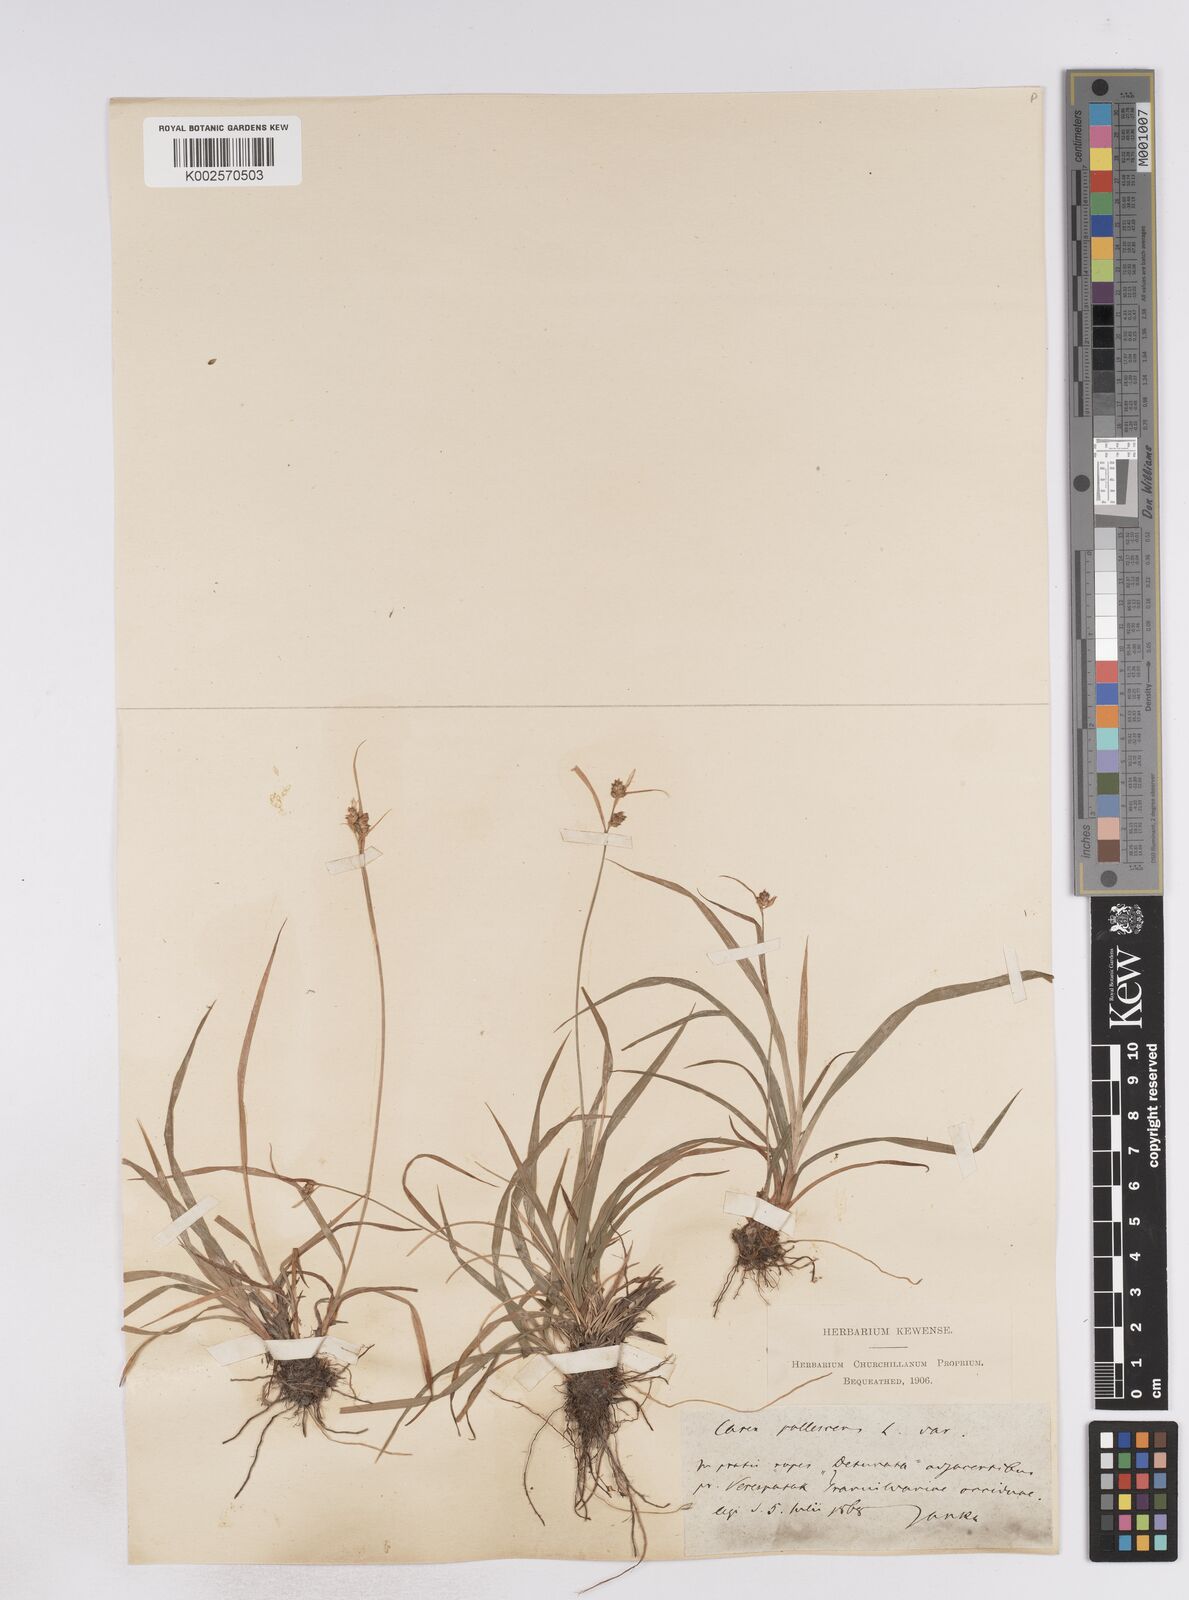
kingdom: Plantae
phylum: Tracheophyta
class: Liliopsida
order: Poales
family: Cyperaceae
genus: Carex
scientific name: Carex pallescens
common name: Pale sedge
